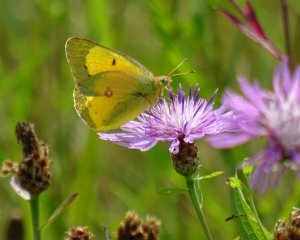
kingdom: Animalia
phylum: Arthropoda
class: Insecta
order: Lepidoptera
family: Pieridae
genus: Colias
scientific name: Colias eurytheme
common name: Orange Sulphur
